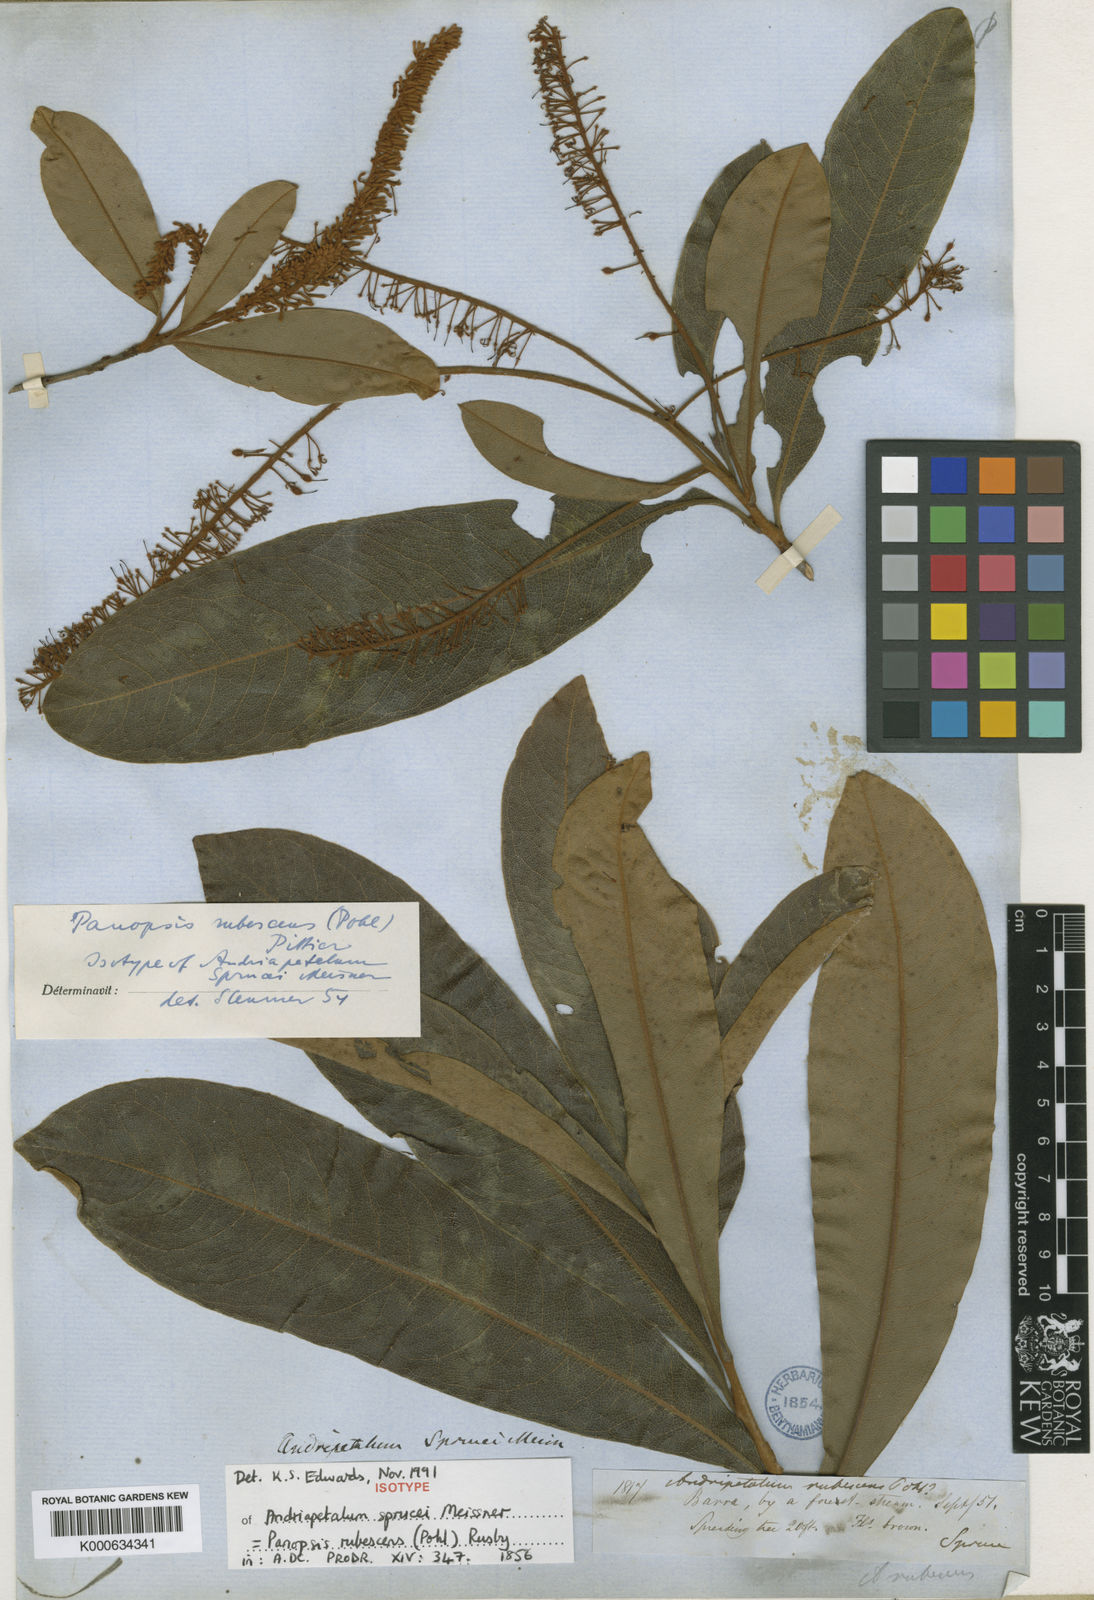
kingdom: Plantae
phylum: Tracheophyta
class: Magnoliopsida
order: Proteales
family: Proteaceae
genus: Panopsis
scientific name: Panopsis
